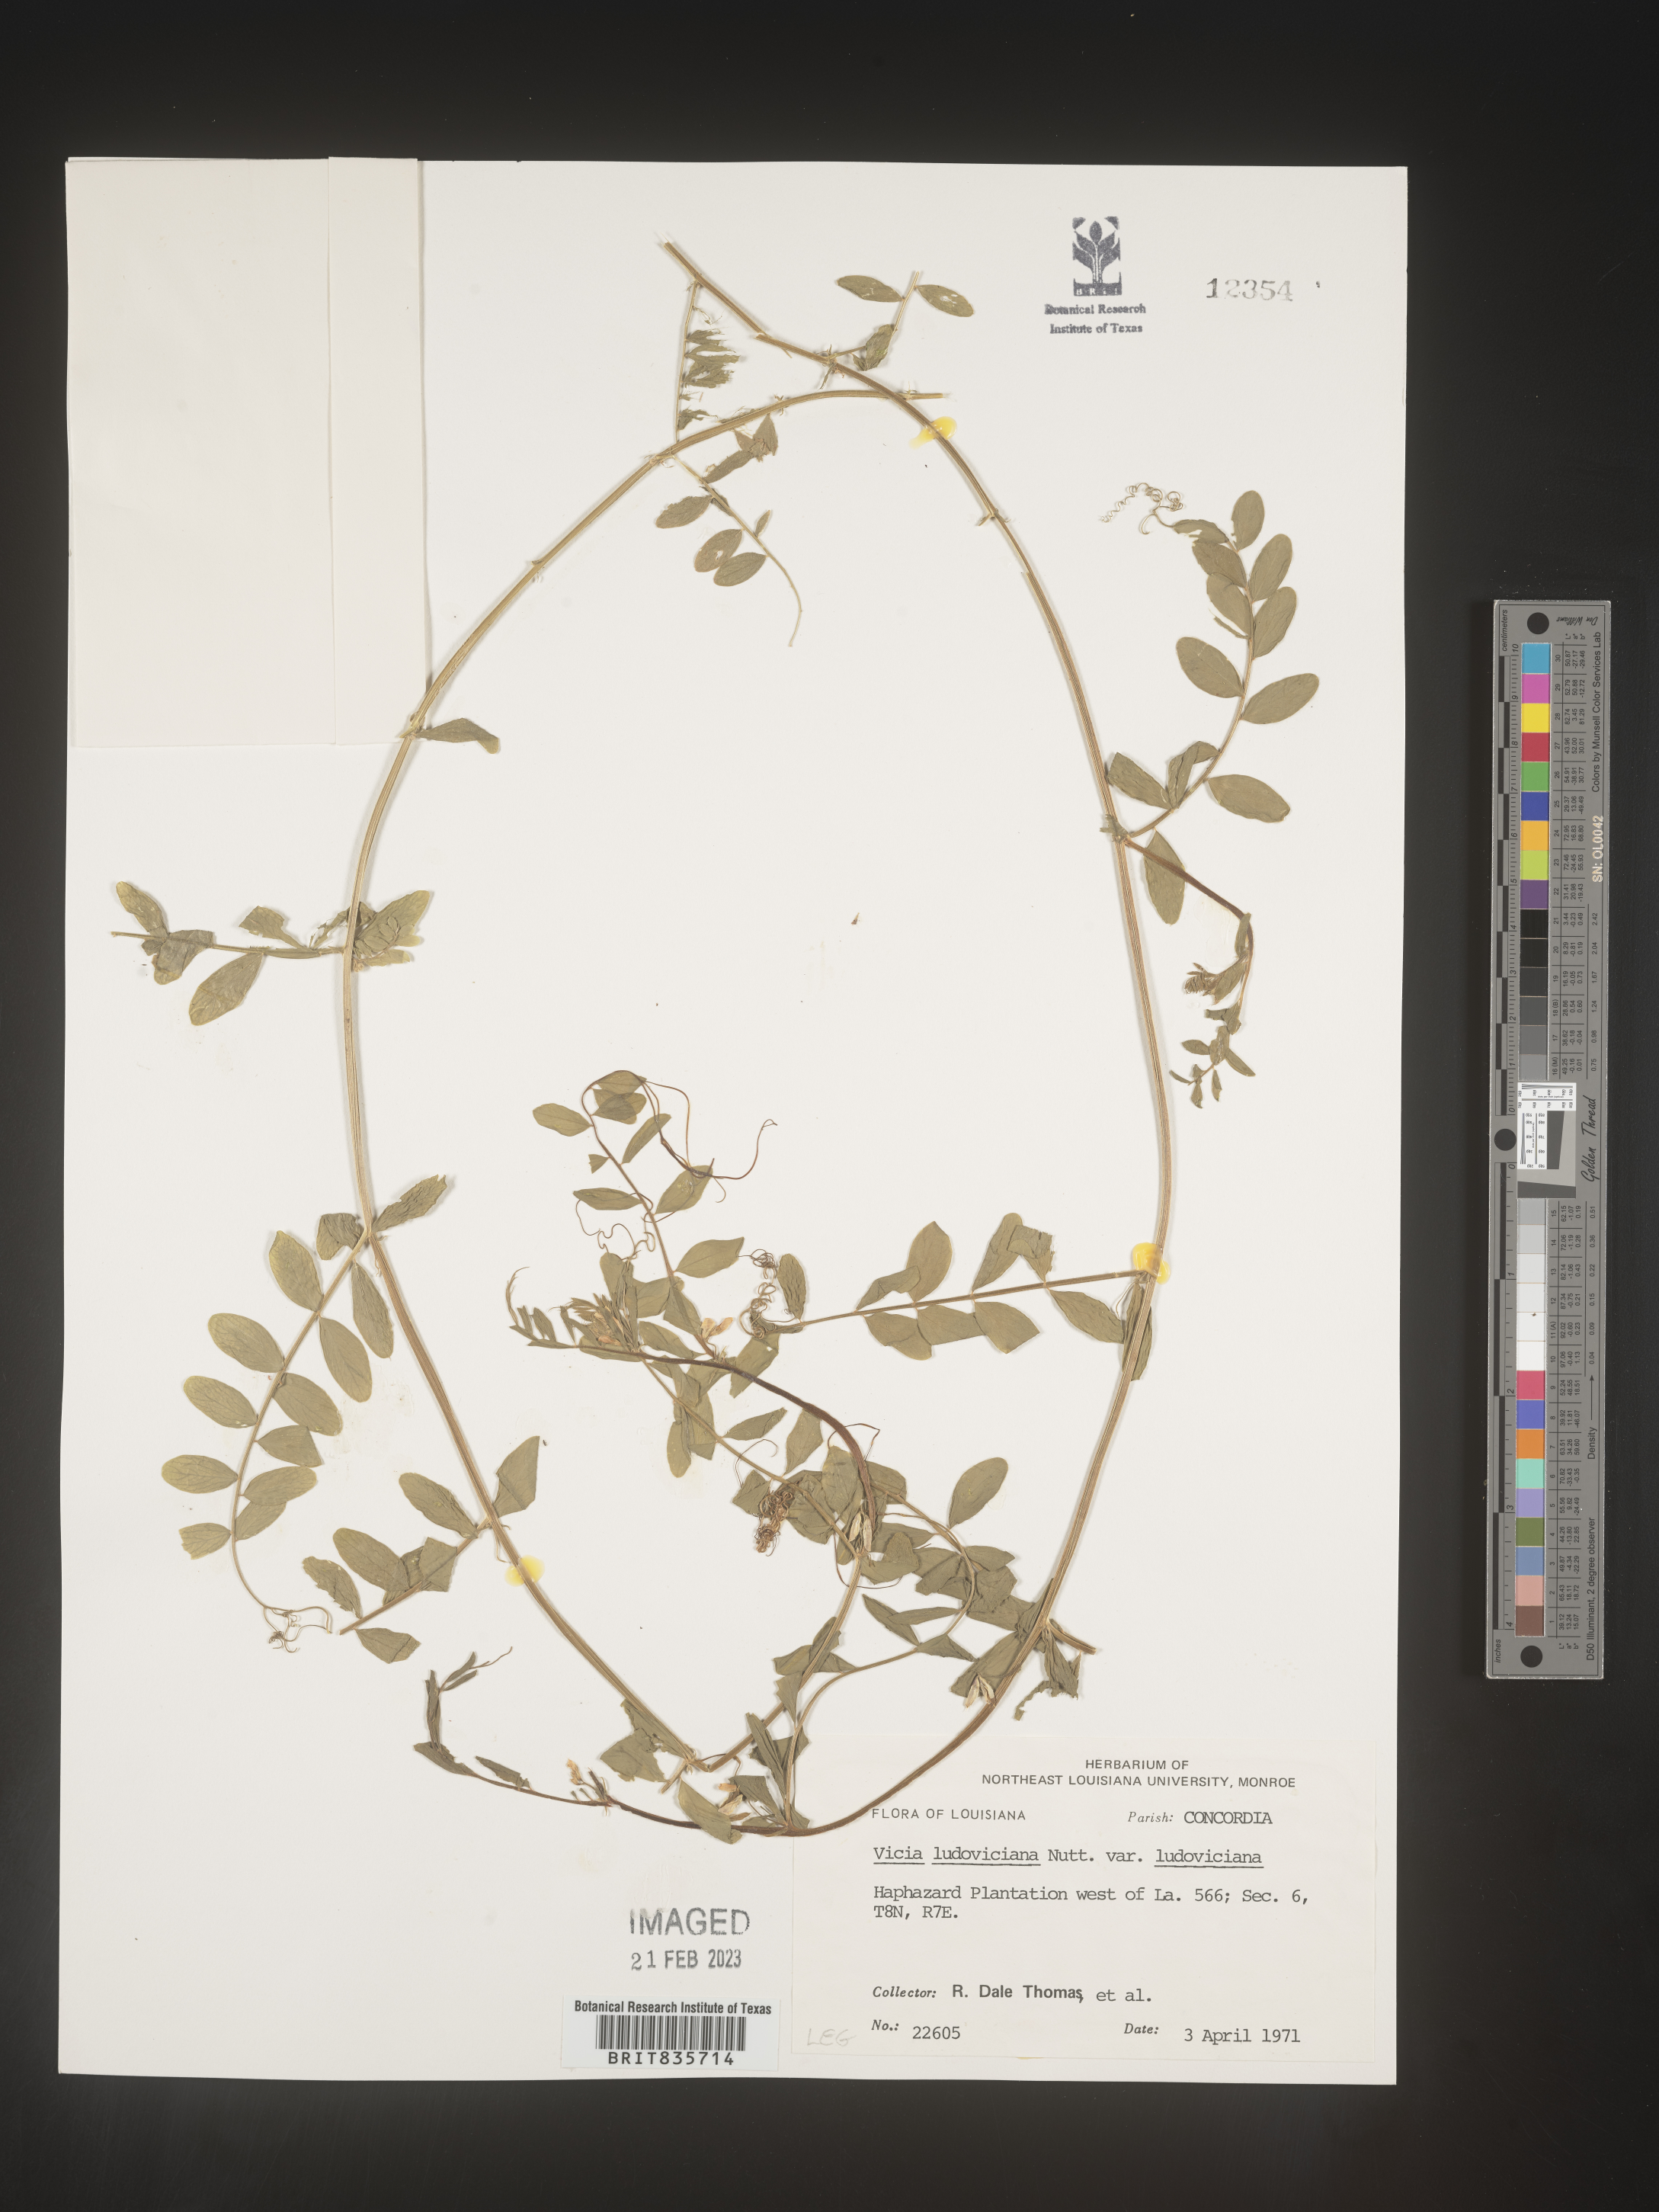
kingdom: Plantae
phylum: Tracheophyta
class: Magnoliopsida
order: Fabales
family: Fabaceae
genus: Vicia
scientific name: Vicia ludoviciana
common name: Louisiana vetch
